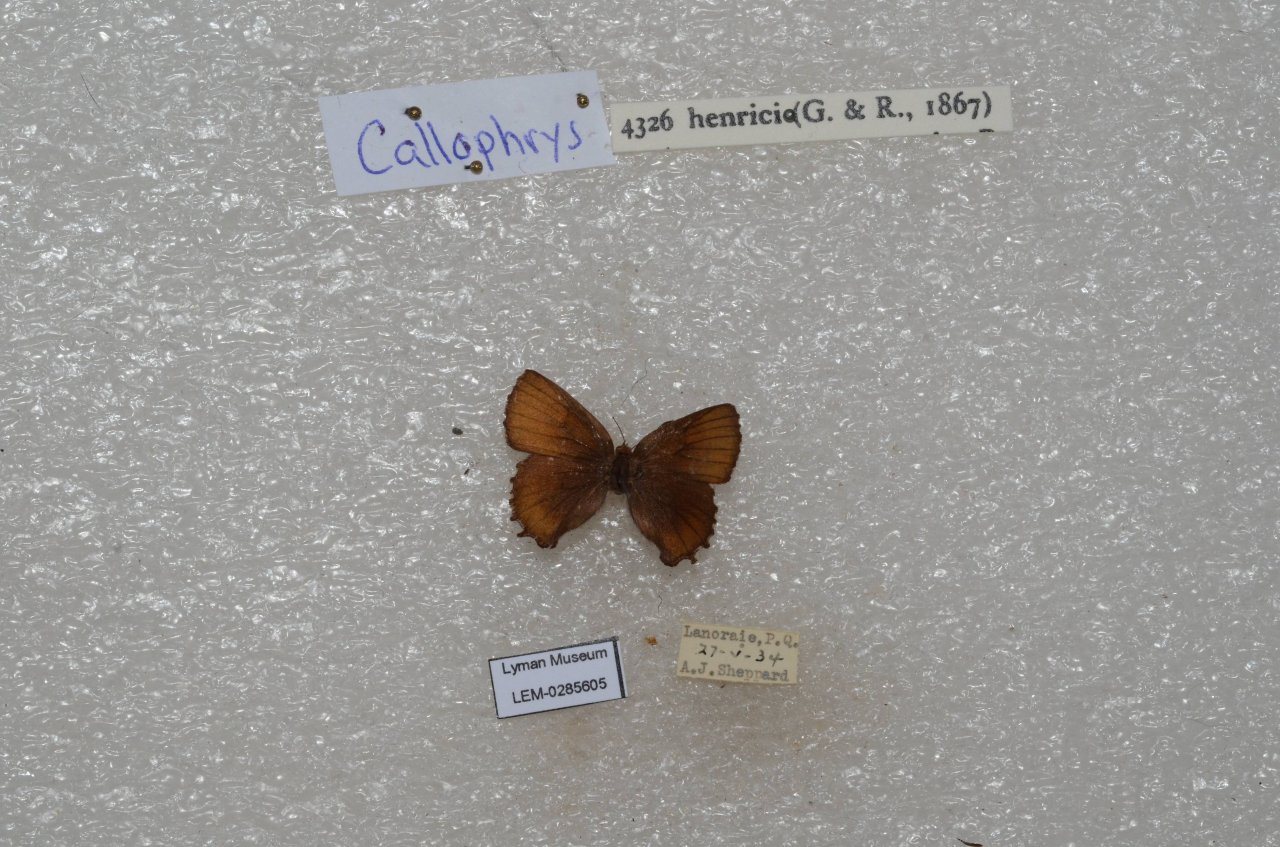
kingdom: Animalia
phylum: Arthropoda
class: Insecta
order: Lepidoptera
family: Lycaenidae
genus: Incisalia
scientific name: Incisalia henrici
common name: Henry's Elfin
